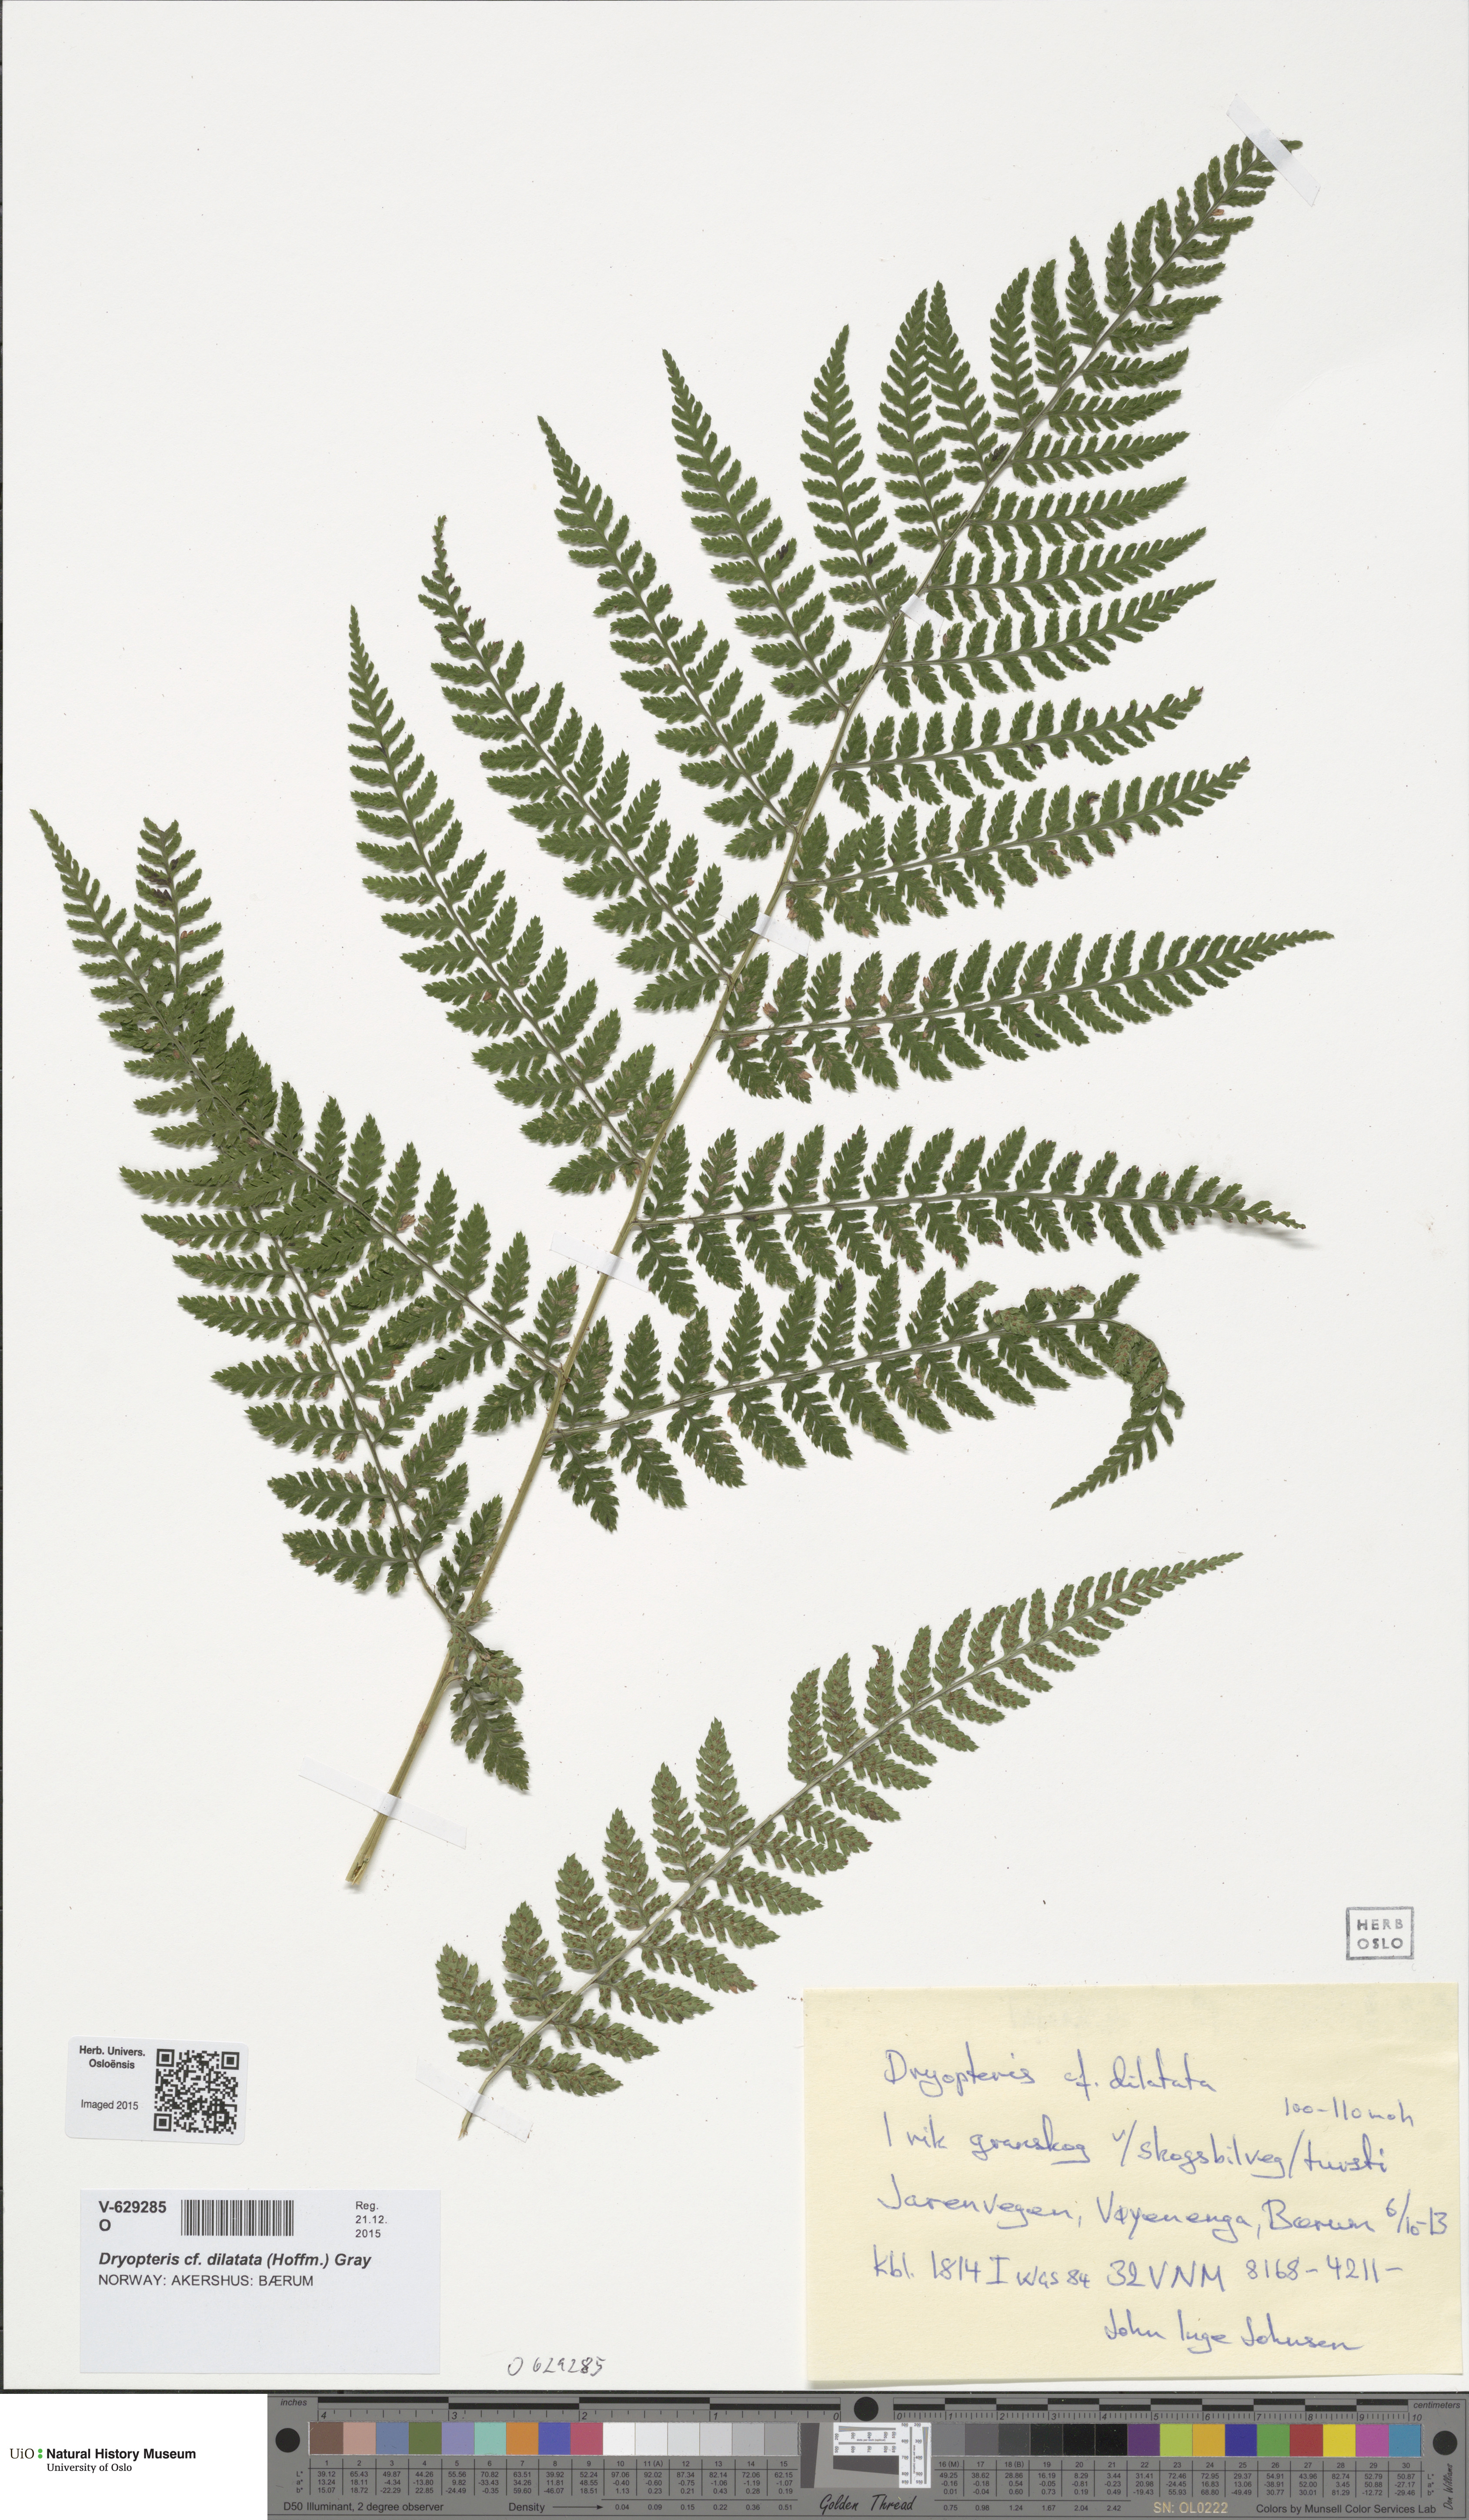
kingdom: Plantae
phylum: Tracheophyta
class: Polypodiopsida
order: Polypodiales
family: Dryopteridaceae
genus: Dryopteris
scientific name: Dryopteris dilatata
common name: Broad buckler-fern
